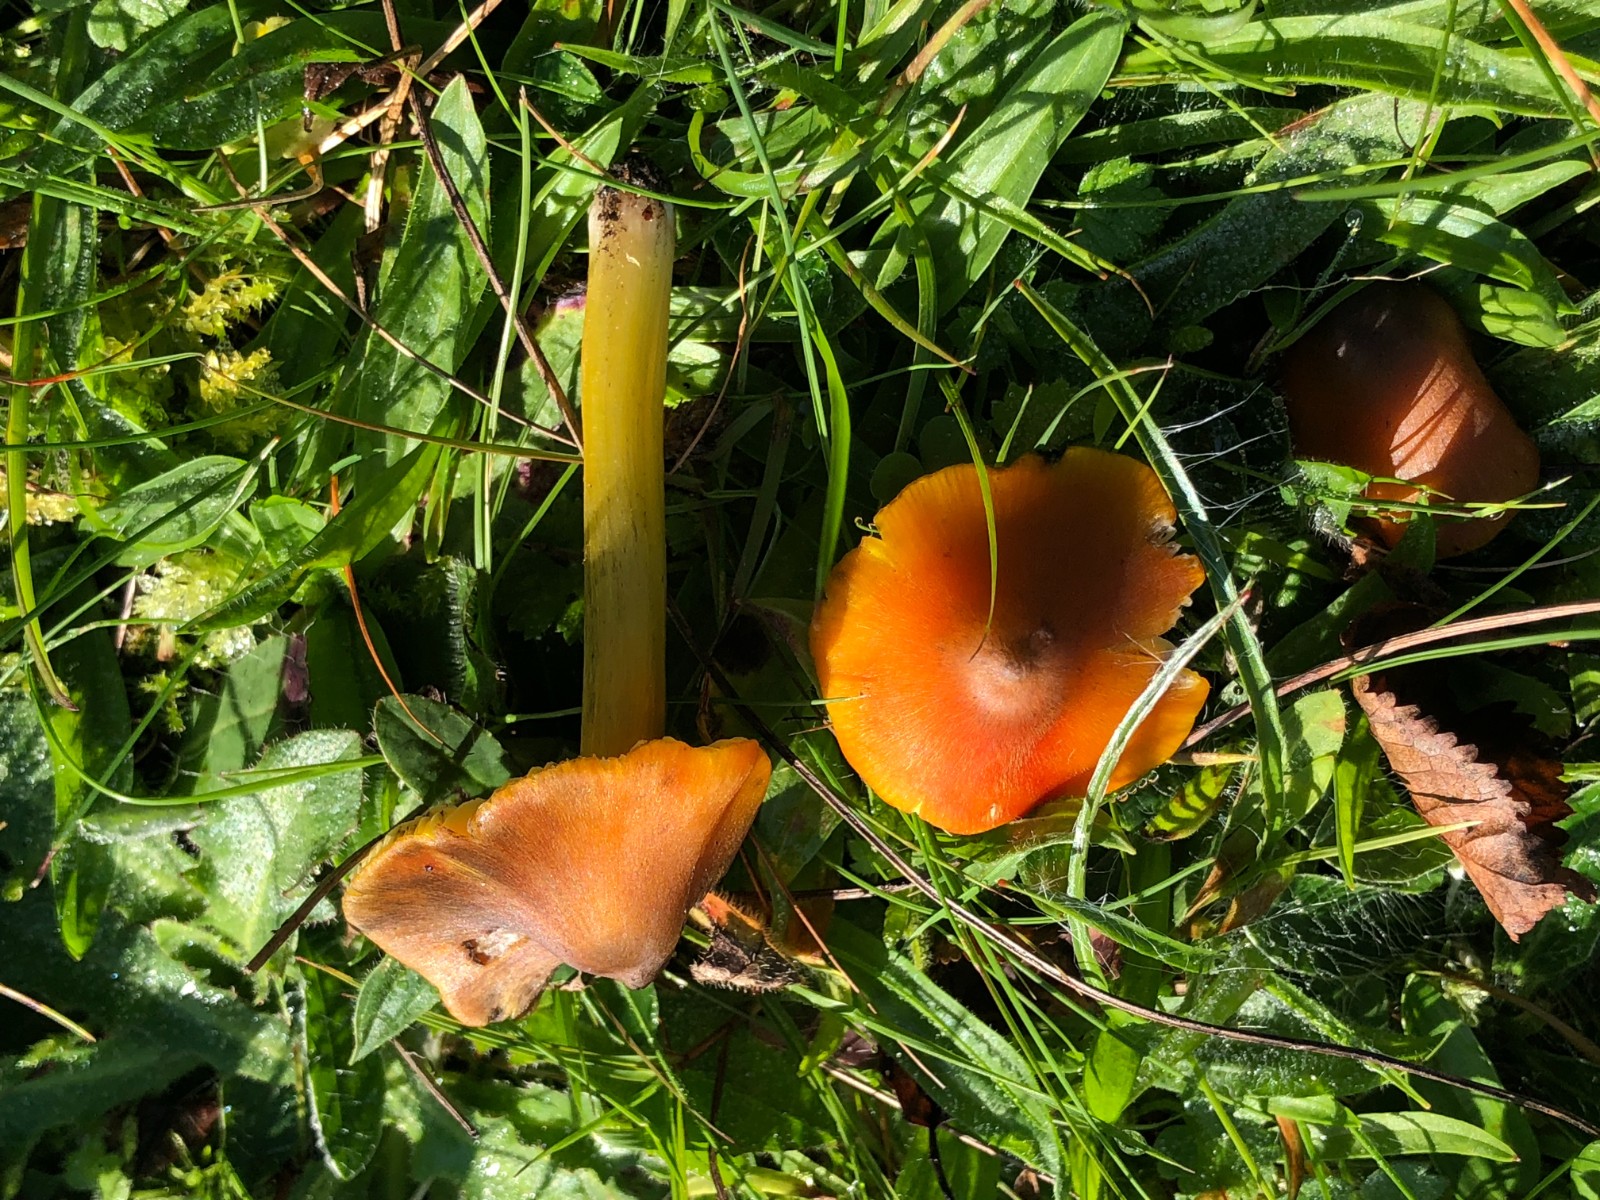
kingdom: Fungi
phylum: Basidiomycota
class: Agaricomycetes
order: Agaricales
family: Hygrophoraceae
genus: Hygrocybe
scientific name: Hygrocybe conica
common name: kegle-vokshat
